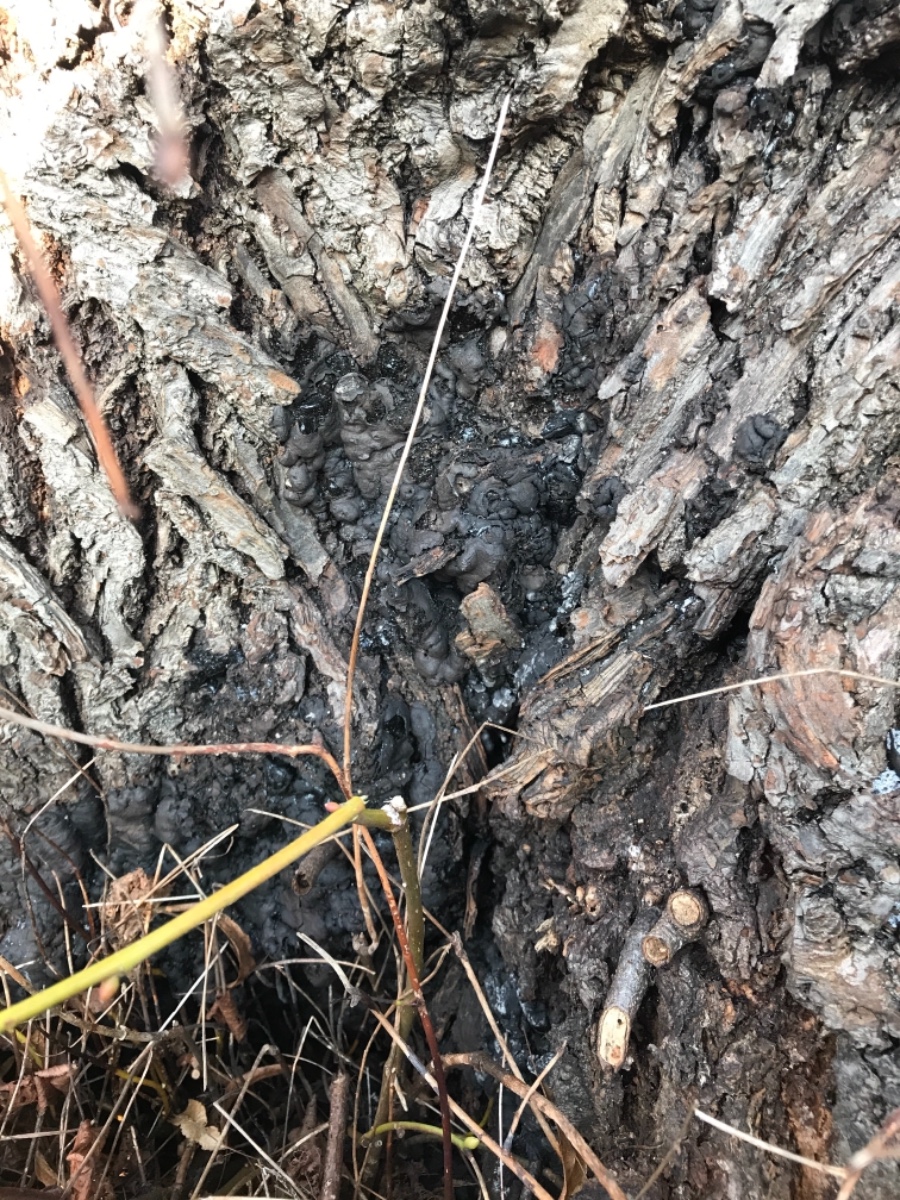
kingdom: Fungi
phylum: Ascomycota
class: Sordariomycetes
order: Xylariales
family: Xylariaceae
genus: Kretzschmaria
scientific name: Kretzschmaria deusta
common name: stor kulsvamp
